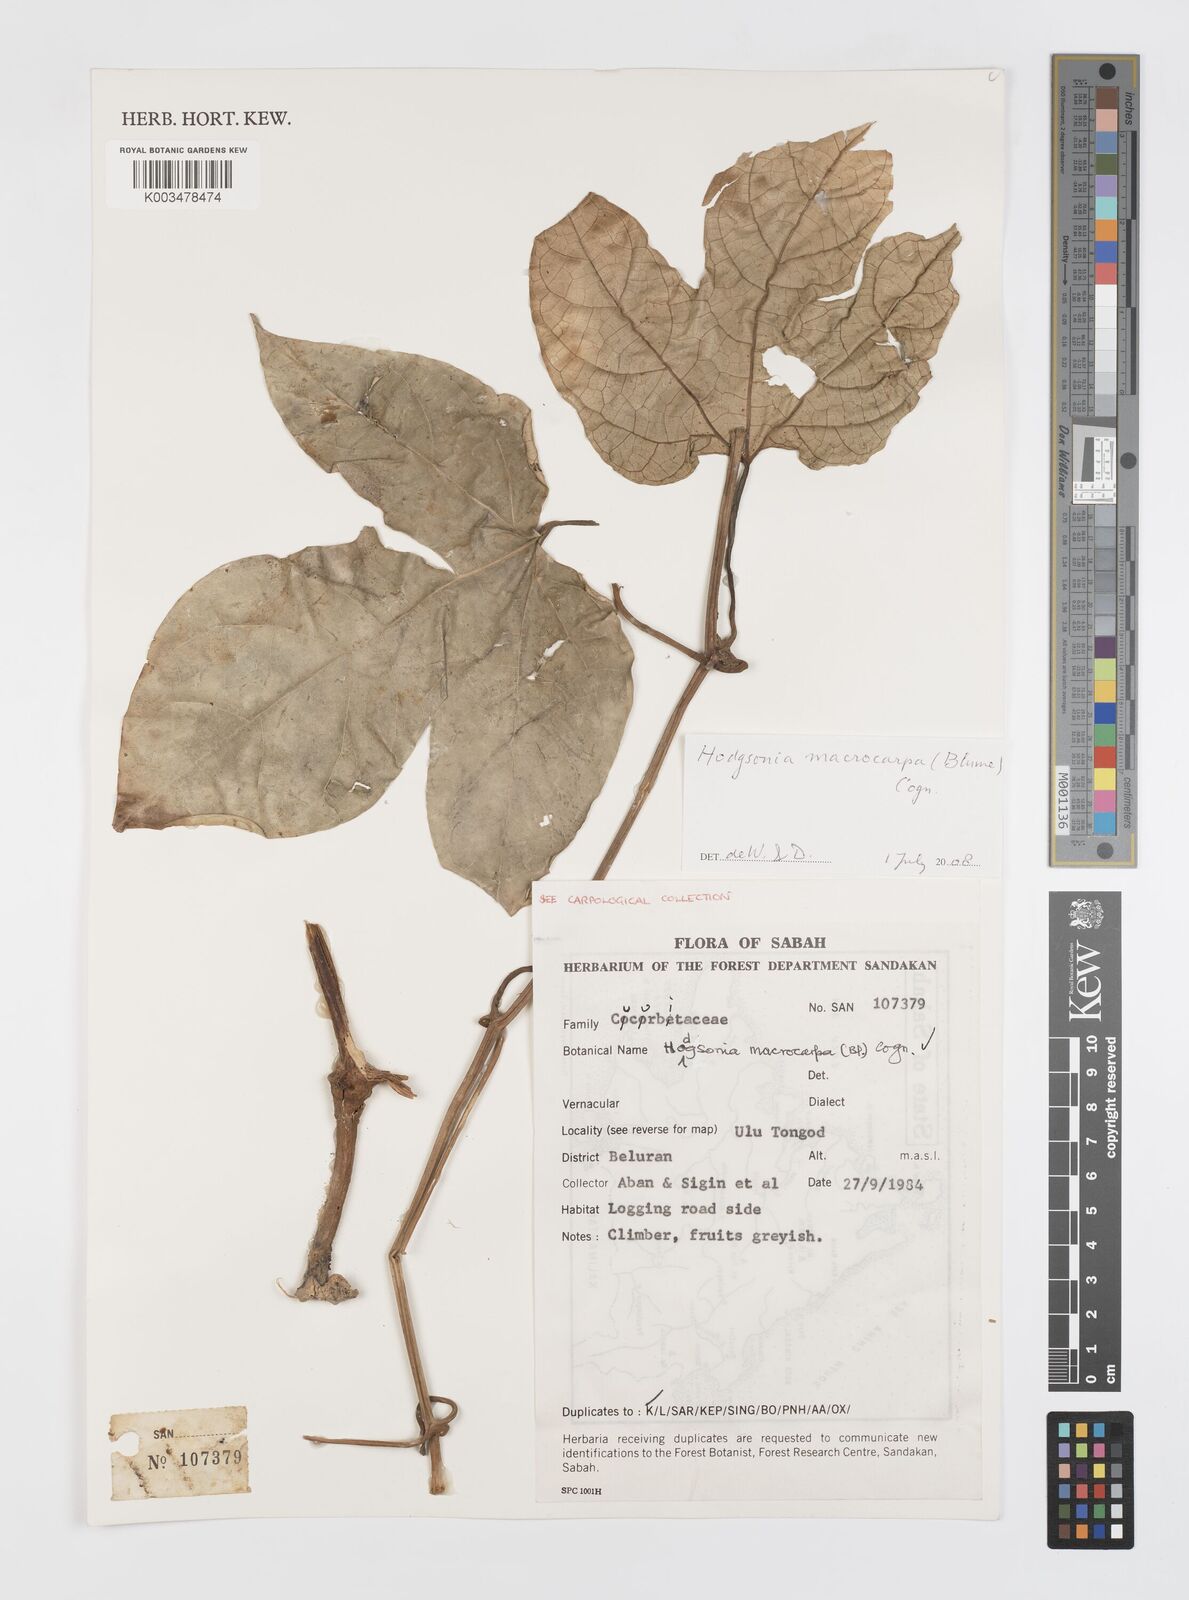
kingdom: Plantae
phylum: Tracheophyta
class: Magnoliopsida
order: Cucurbitales
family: Cucurbitaceae
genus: Hodgsonia
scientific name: Hodgsonia macrocarpa
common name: Chinese lardfruit
